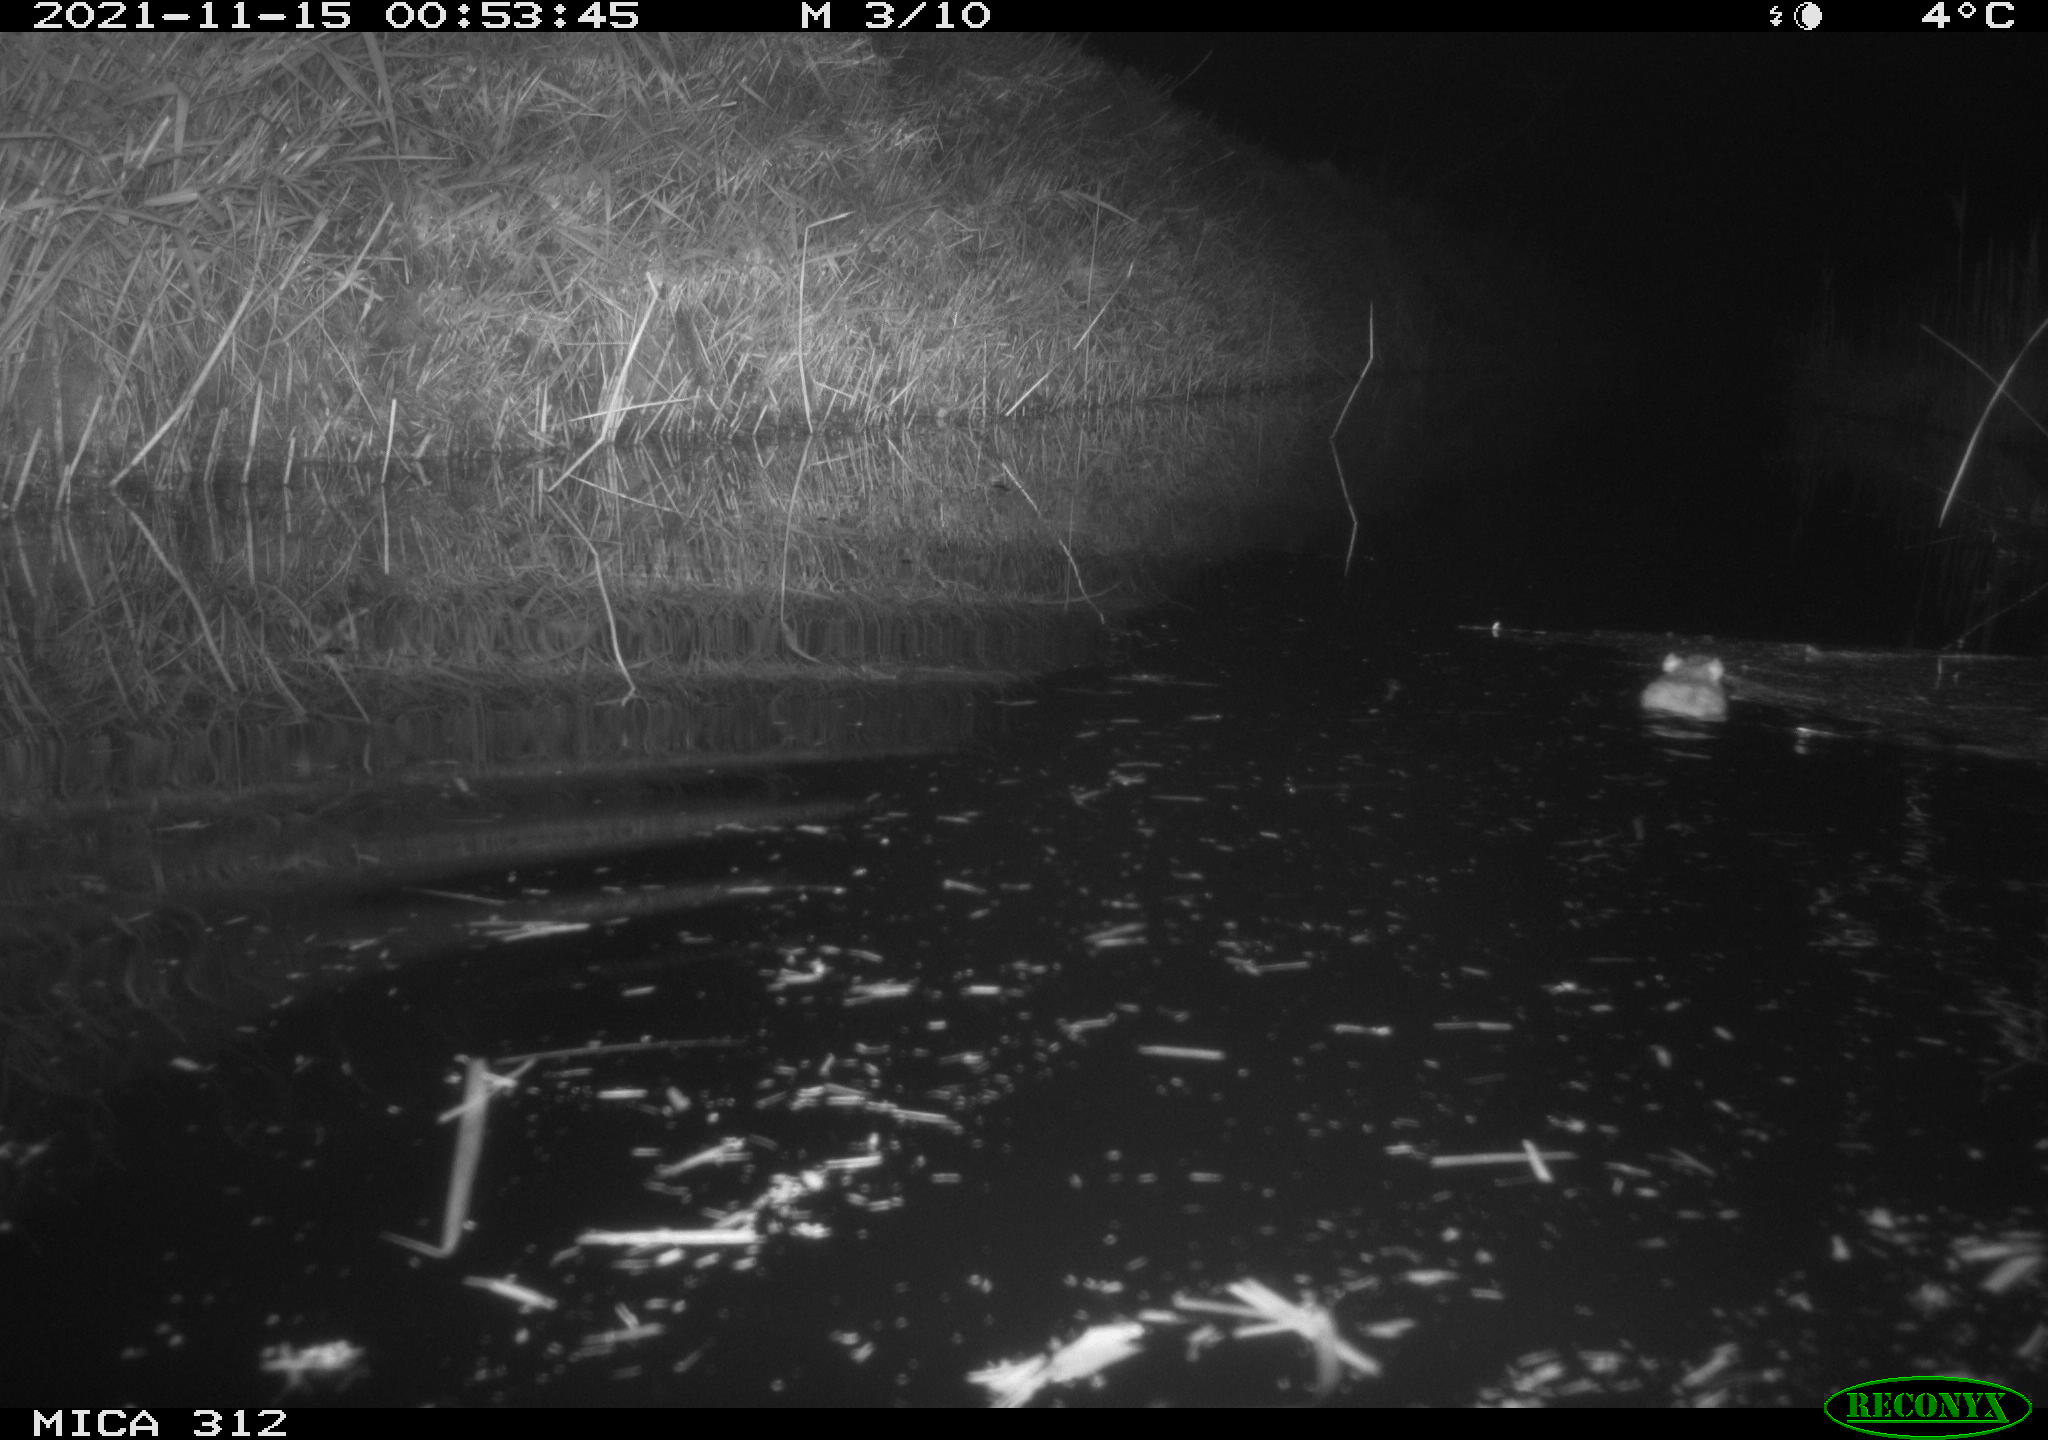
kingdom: Animalia
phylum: Chordata
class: Mammalia
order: Rodentia
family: Muridae
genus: Rattus
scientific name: Rattus norvegicus
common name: Brown rat
